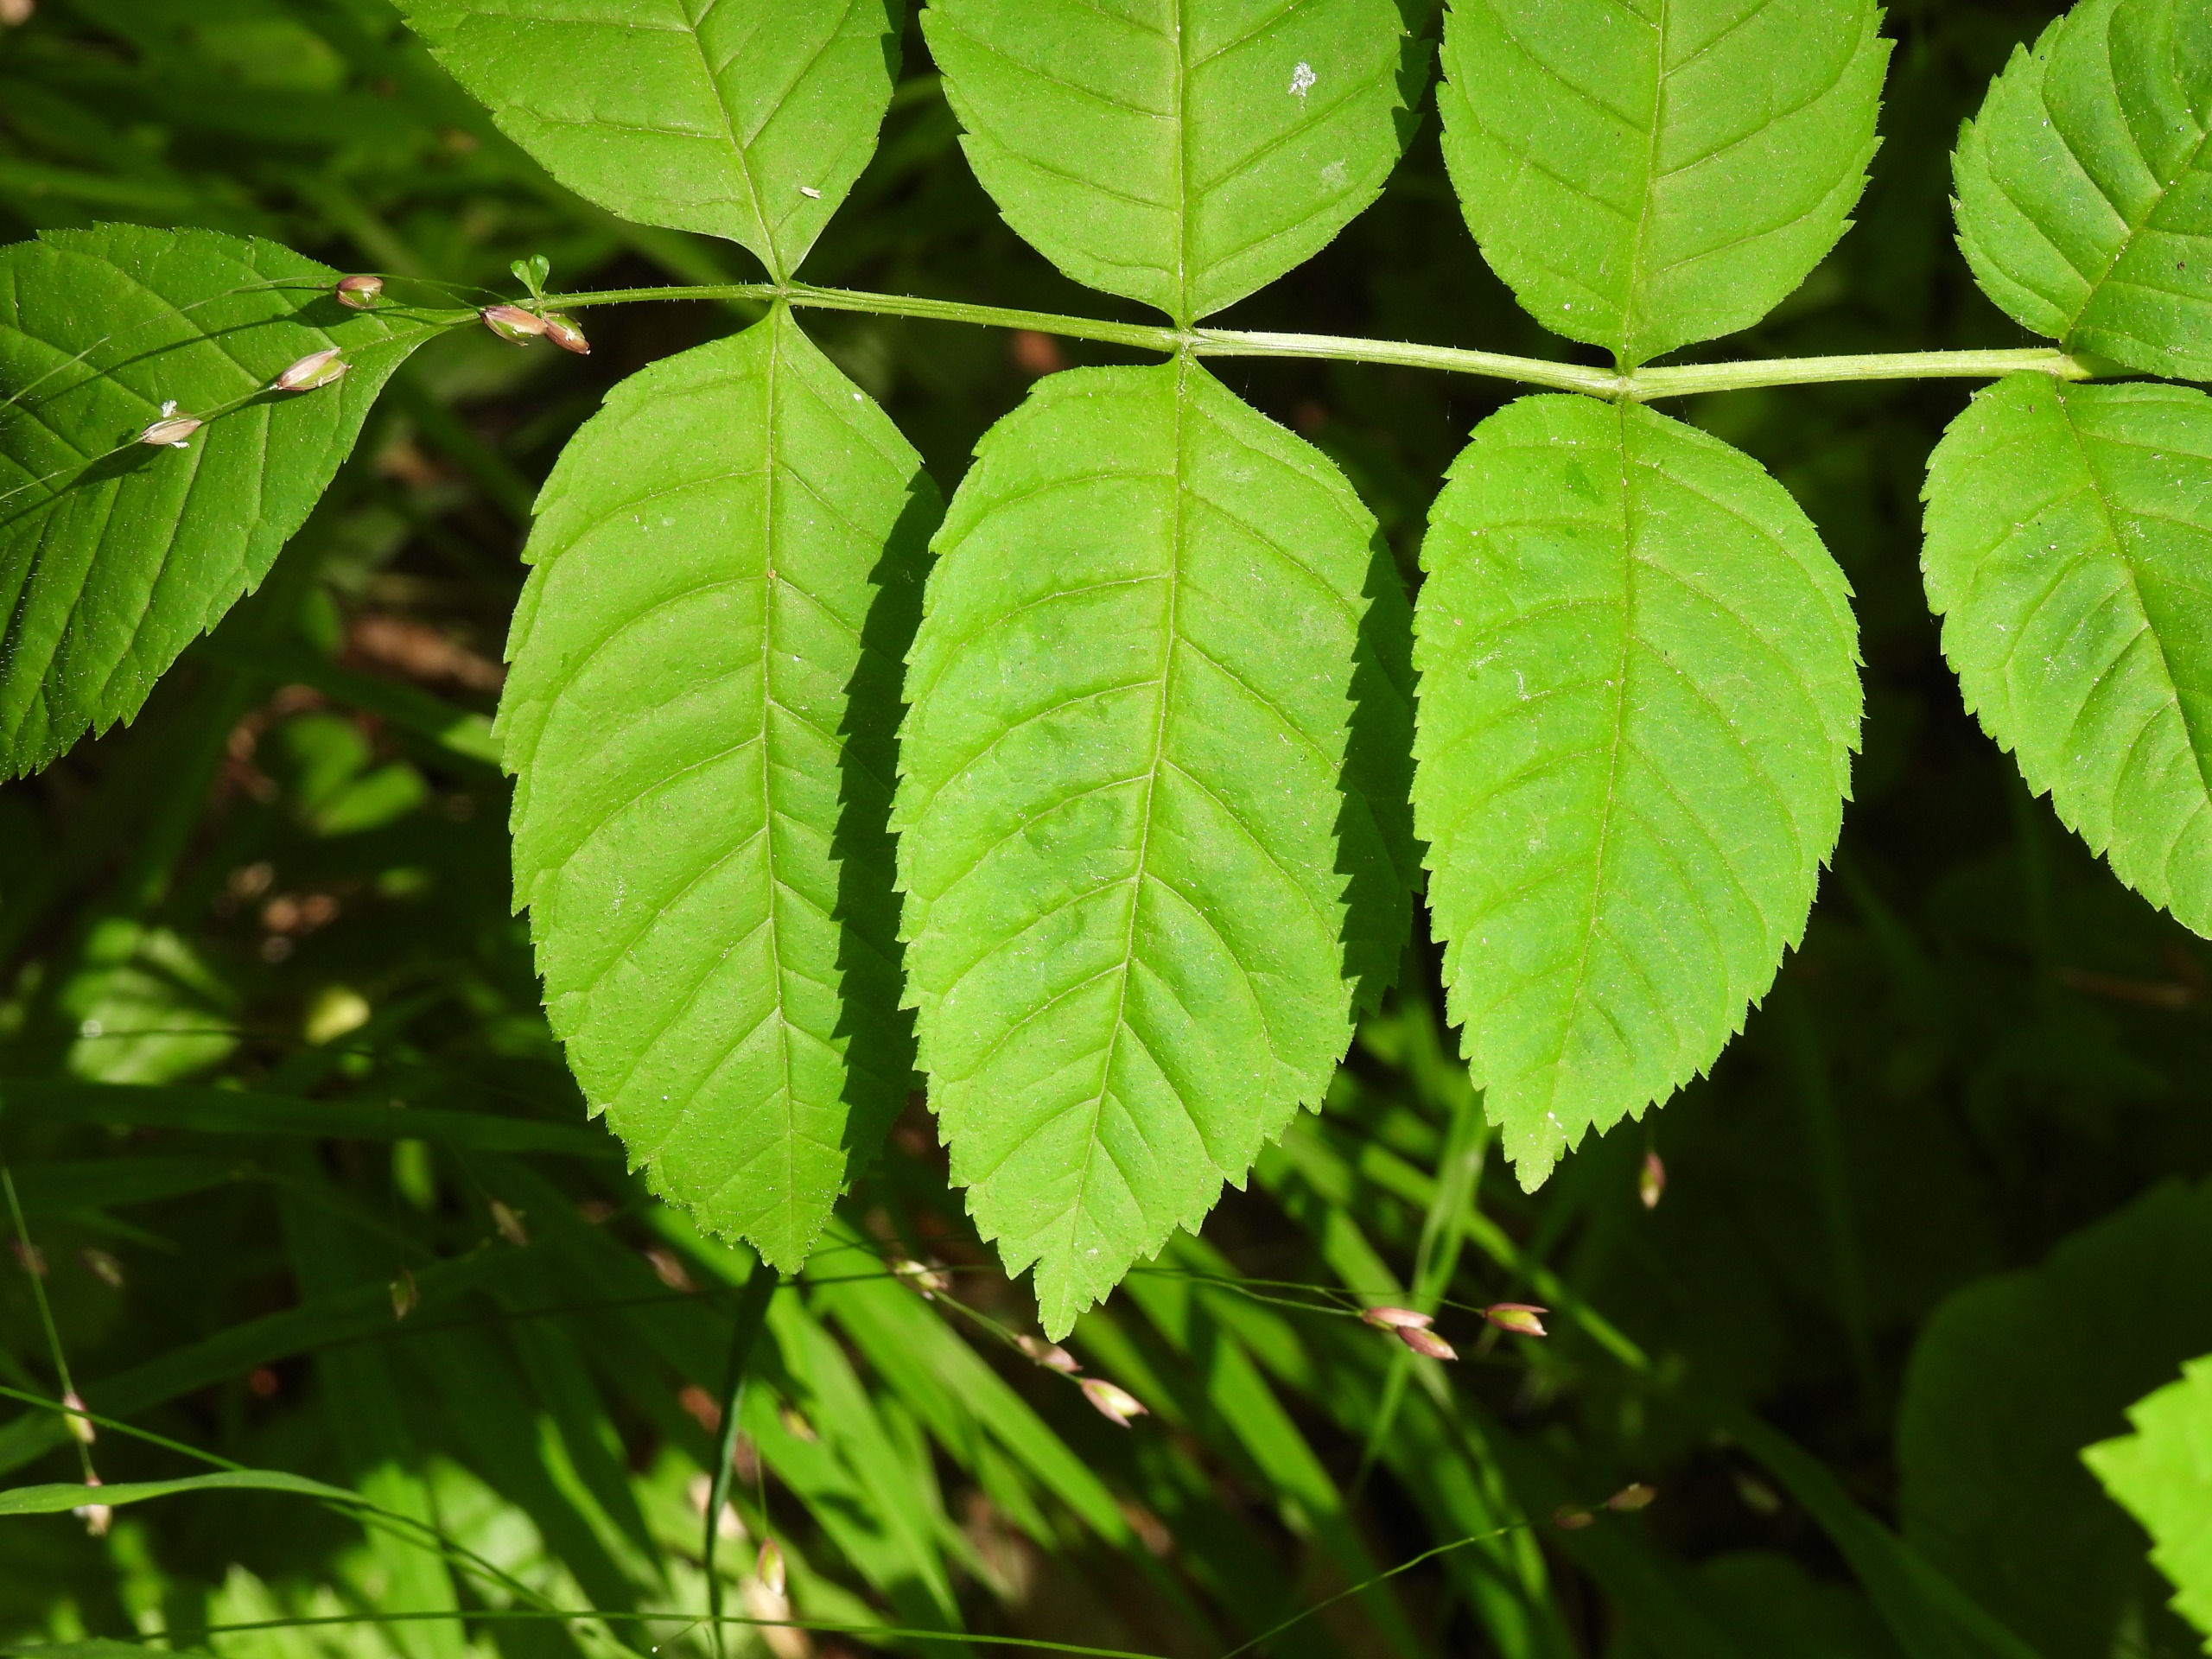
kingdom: Plantae
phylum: Tracheophyta
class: Magnoliopsida
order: Lamiales
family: Oleaceae
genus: Fraxinus
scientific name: Fraxinus excelsior
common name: Ask
